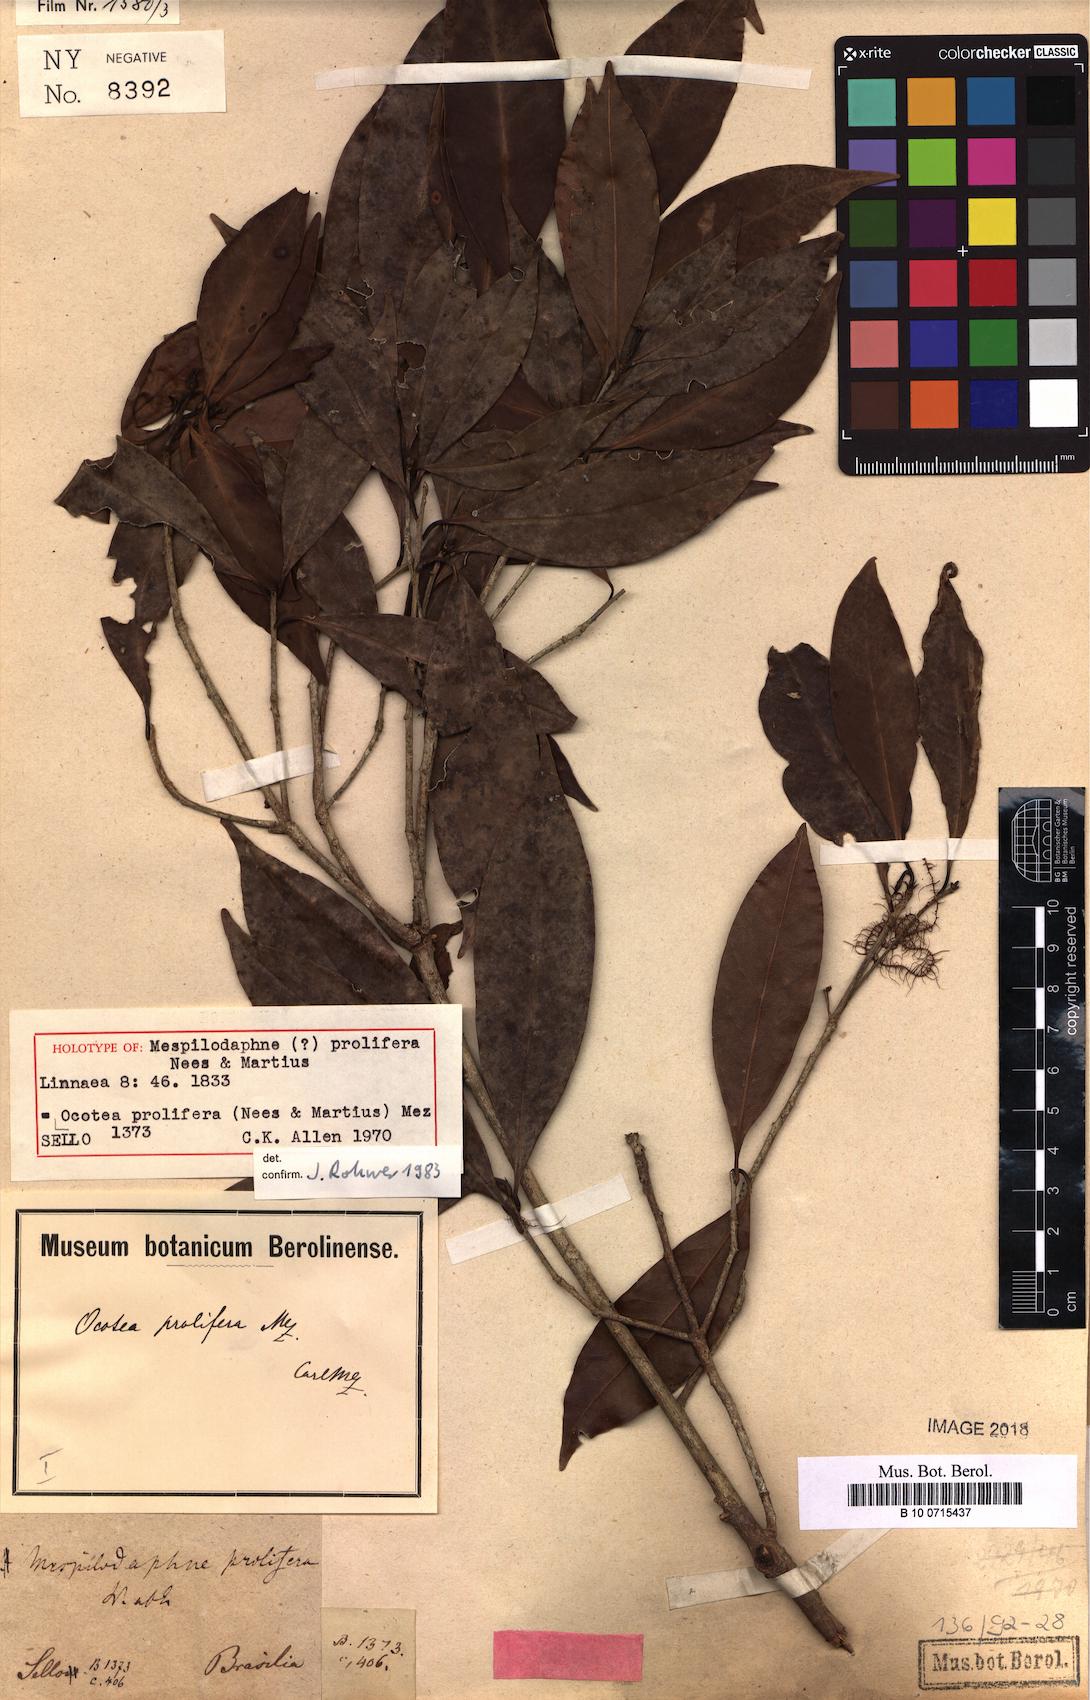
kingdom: Plantae
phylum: Tracheophyta
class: Magnoliopsida
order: Laurales
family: Lauraceae
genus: Mespilodaphne
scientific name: Mespilodaphne prolifera
